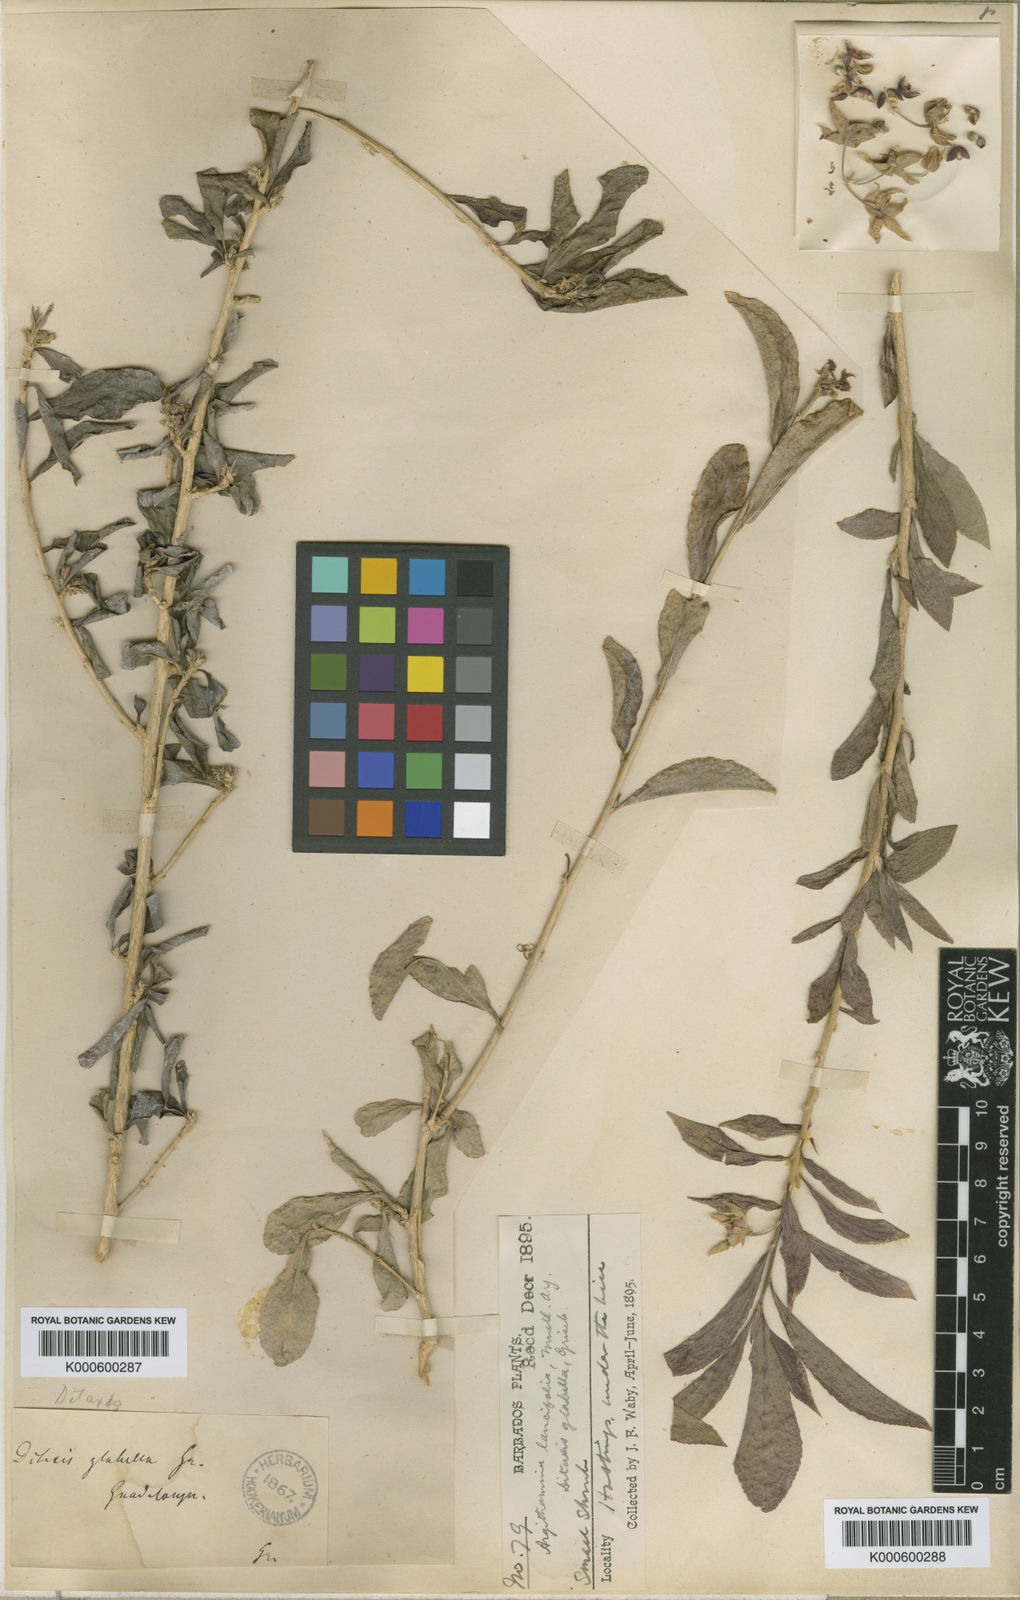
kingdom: Plantae
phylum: Tracheophyta
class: Magnoliopsida
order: Malpighiales
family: Euphorbiaceae
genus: Ditaxis
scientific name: Ditaxis polygama
